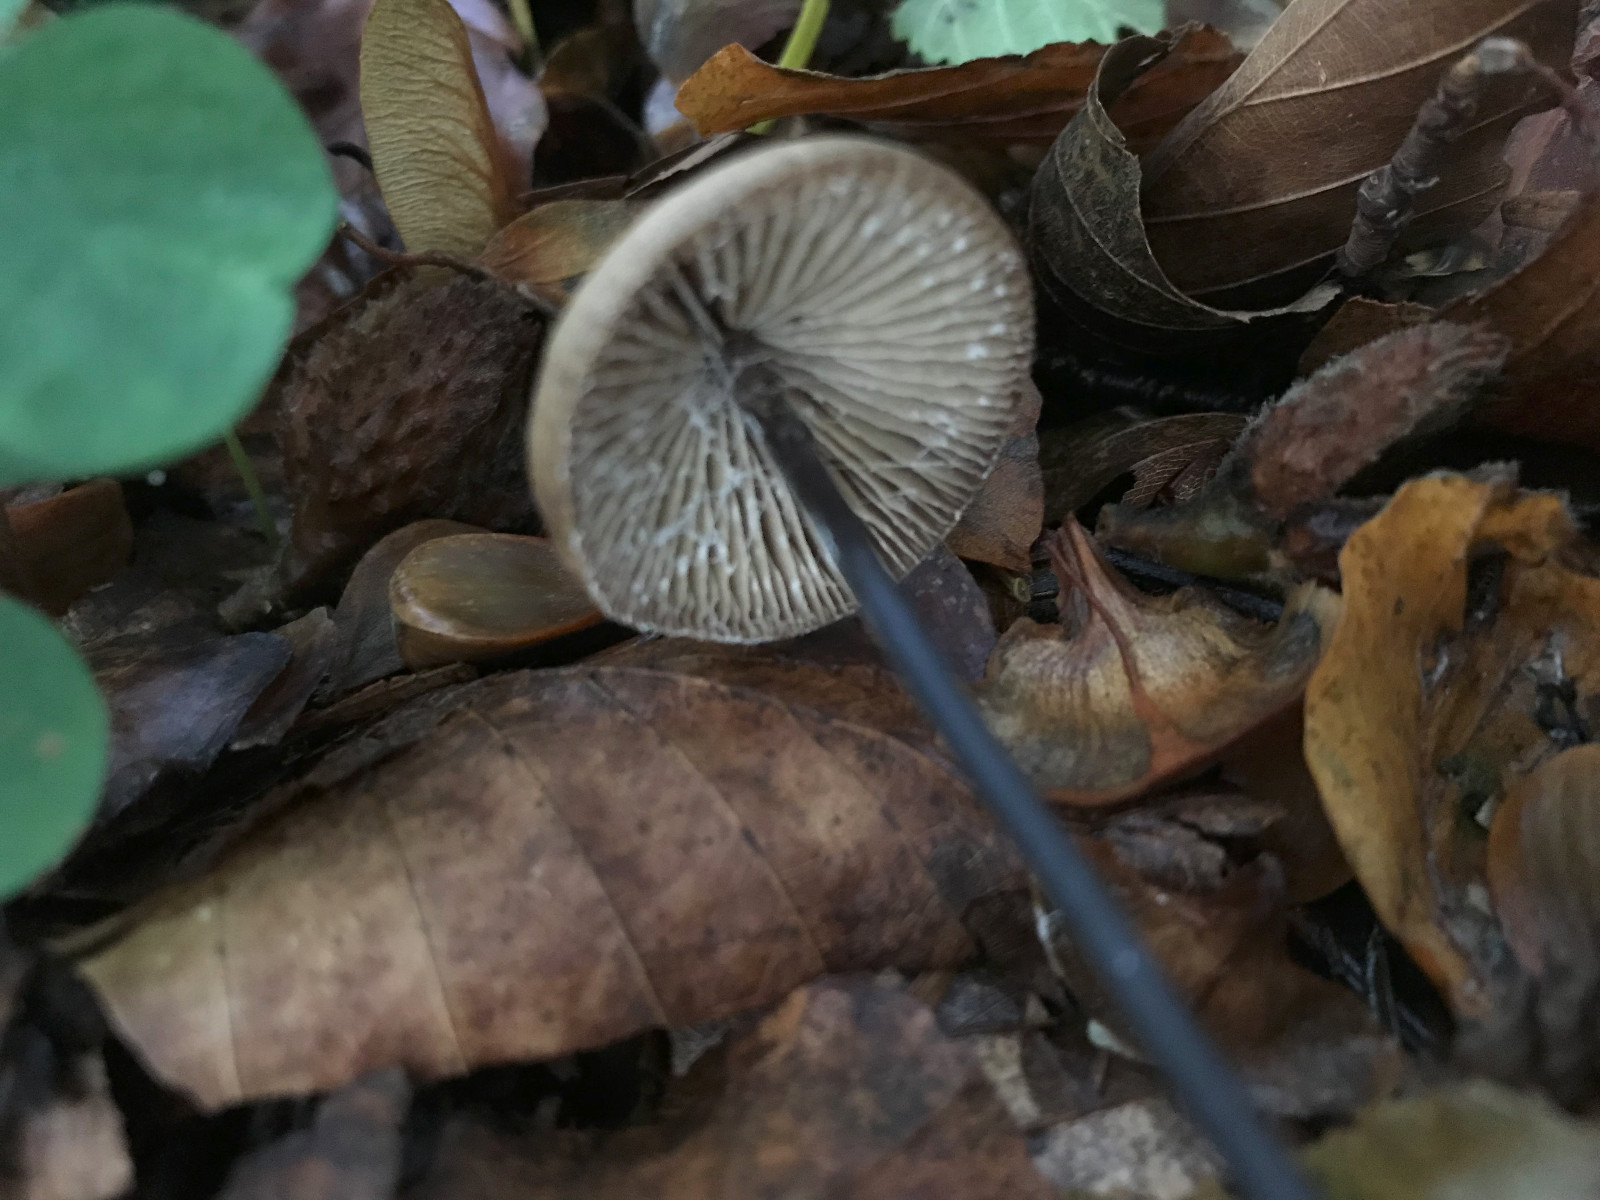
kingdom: Fungi
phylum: Basidiomycota
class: Agaricomycetes
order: Agaricales
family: Omphalotaceae
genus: Mycetinis
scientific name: Mycetinis alliaceus
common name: stor løghat
